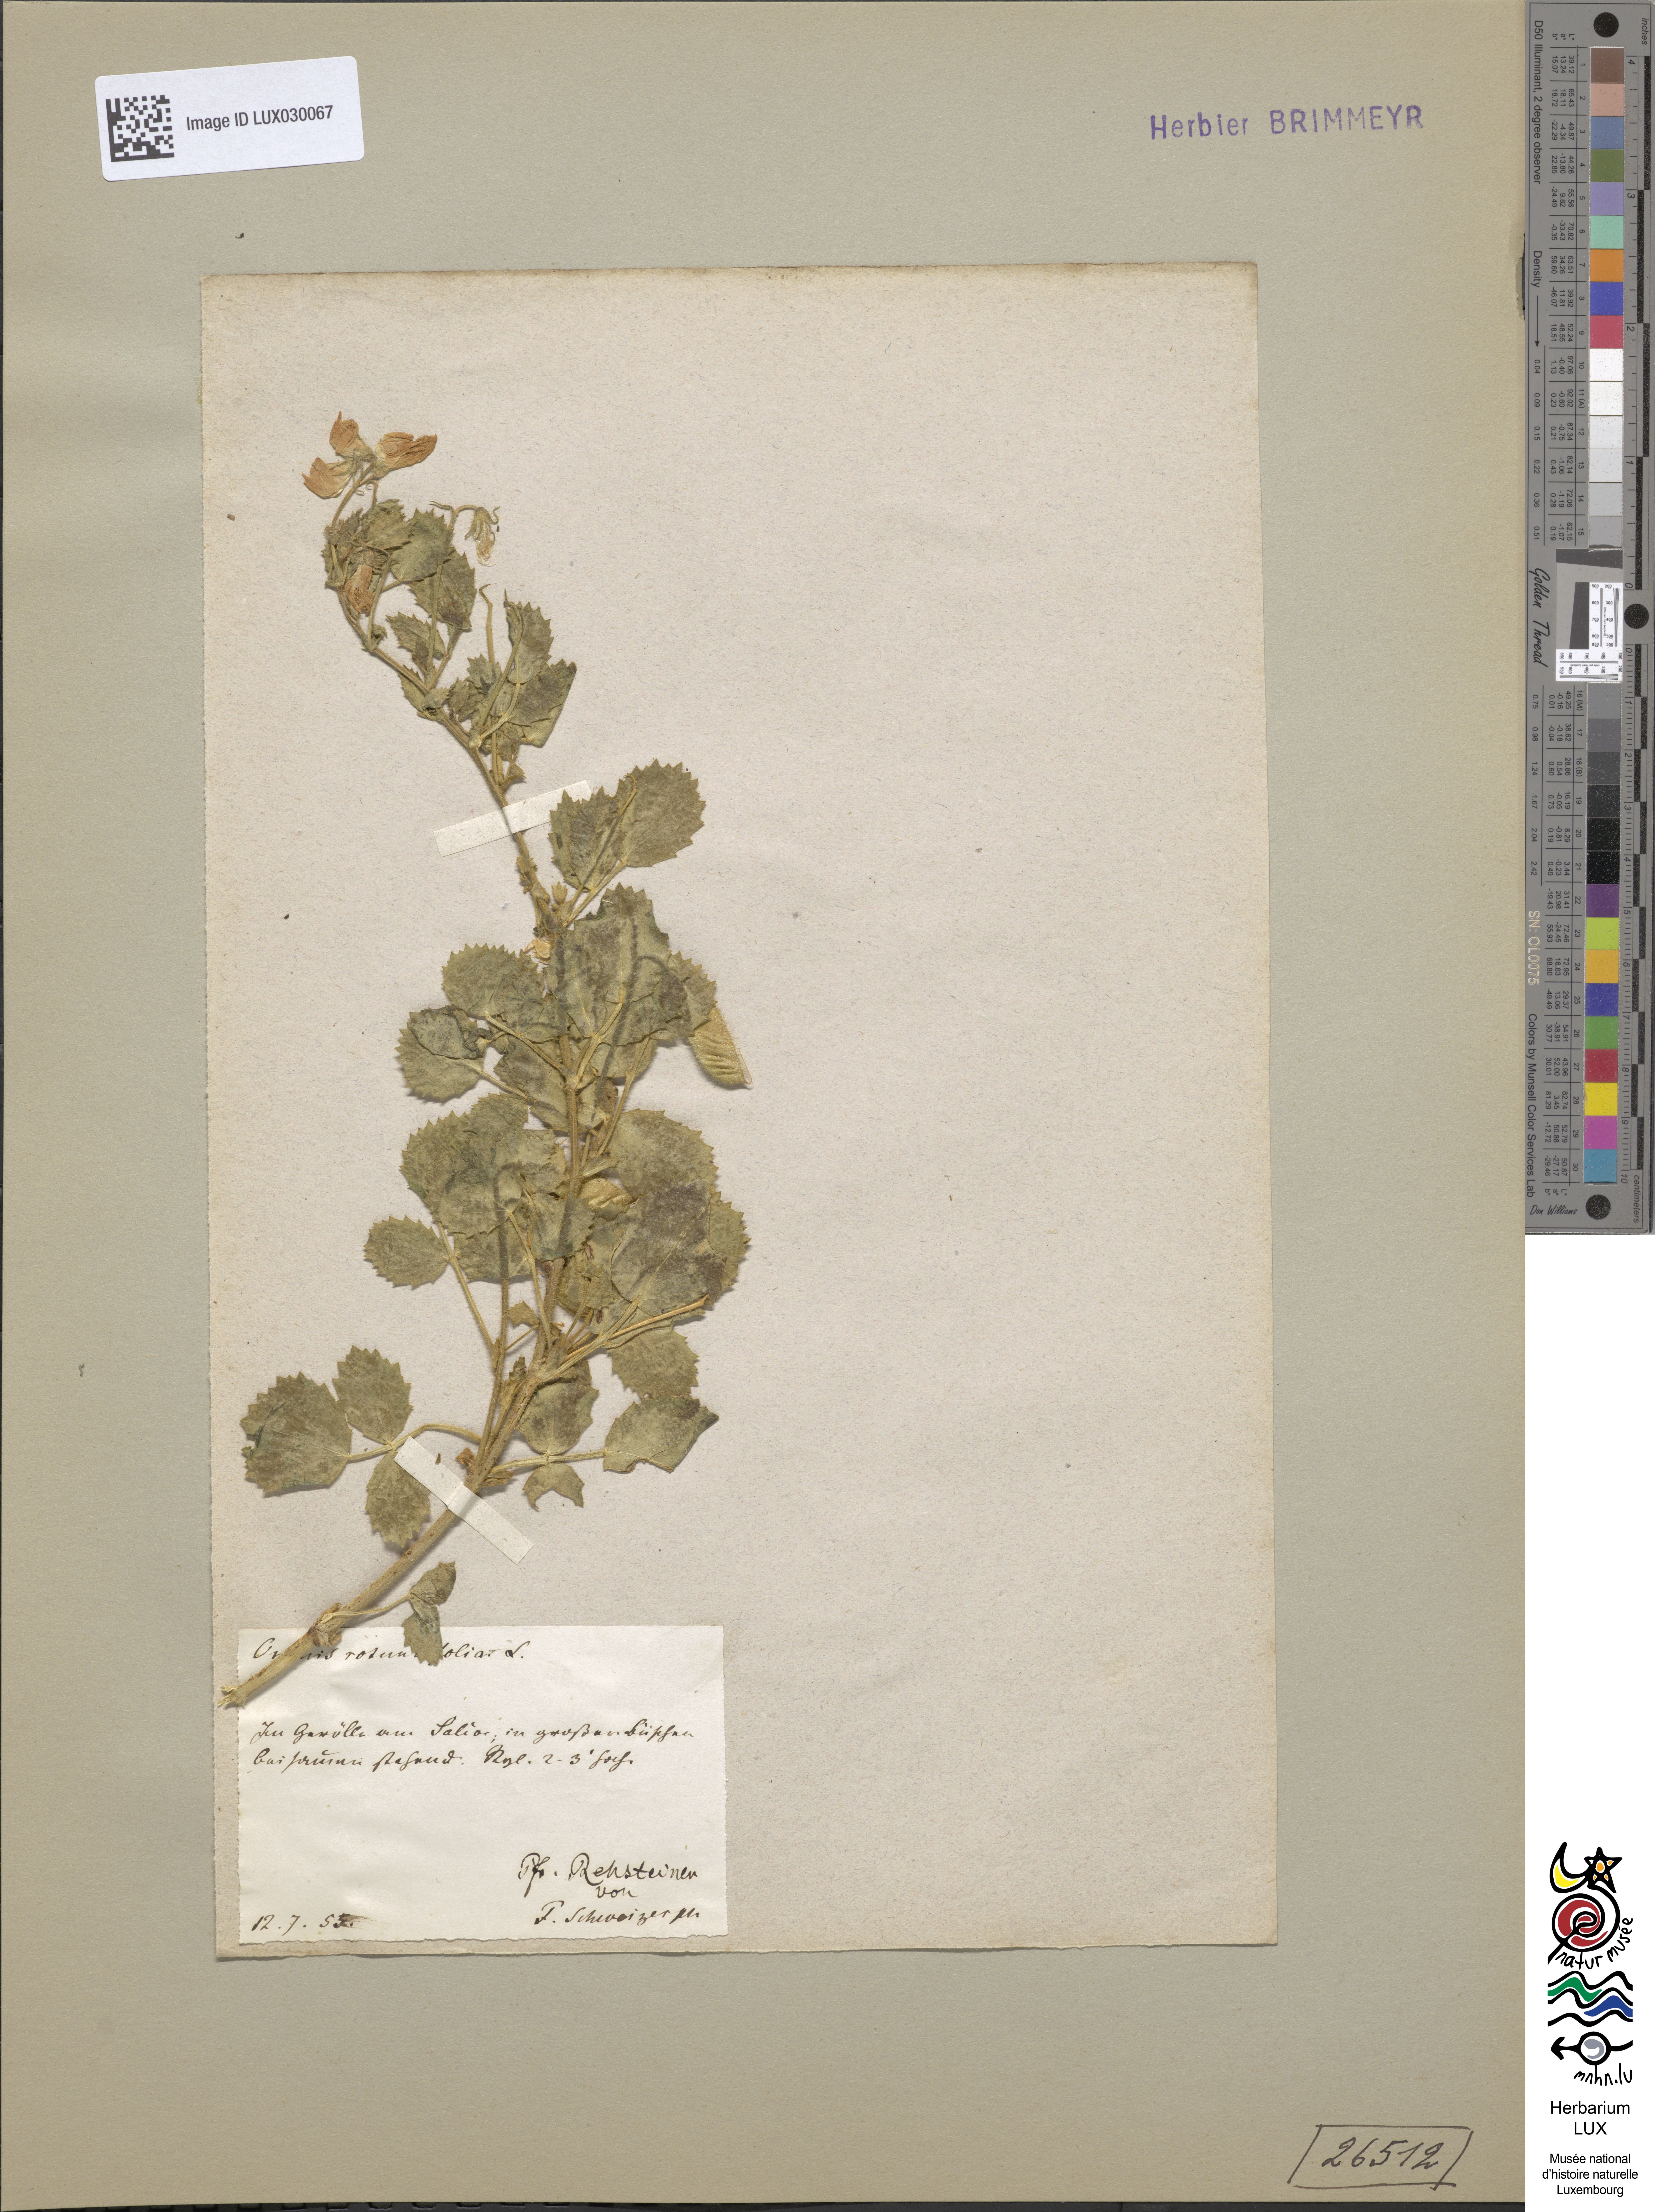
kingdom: Plantae
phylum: Tracheophyta
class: Magnoliopsida
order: Fabales
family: Fabaceae
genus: Ononis
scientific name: Ononis rotundifolia
